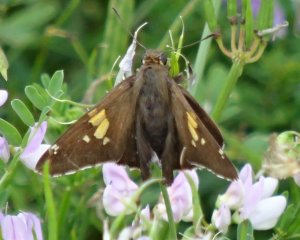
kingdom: Animalia
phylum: Arthropoda
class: Insecta
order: Lepidoptera
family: Hesperiidae
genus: Epargyreus
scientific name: Epargyreus clarus
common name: Silver-spotted Skipper
